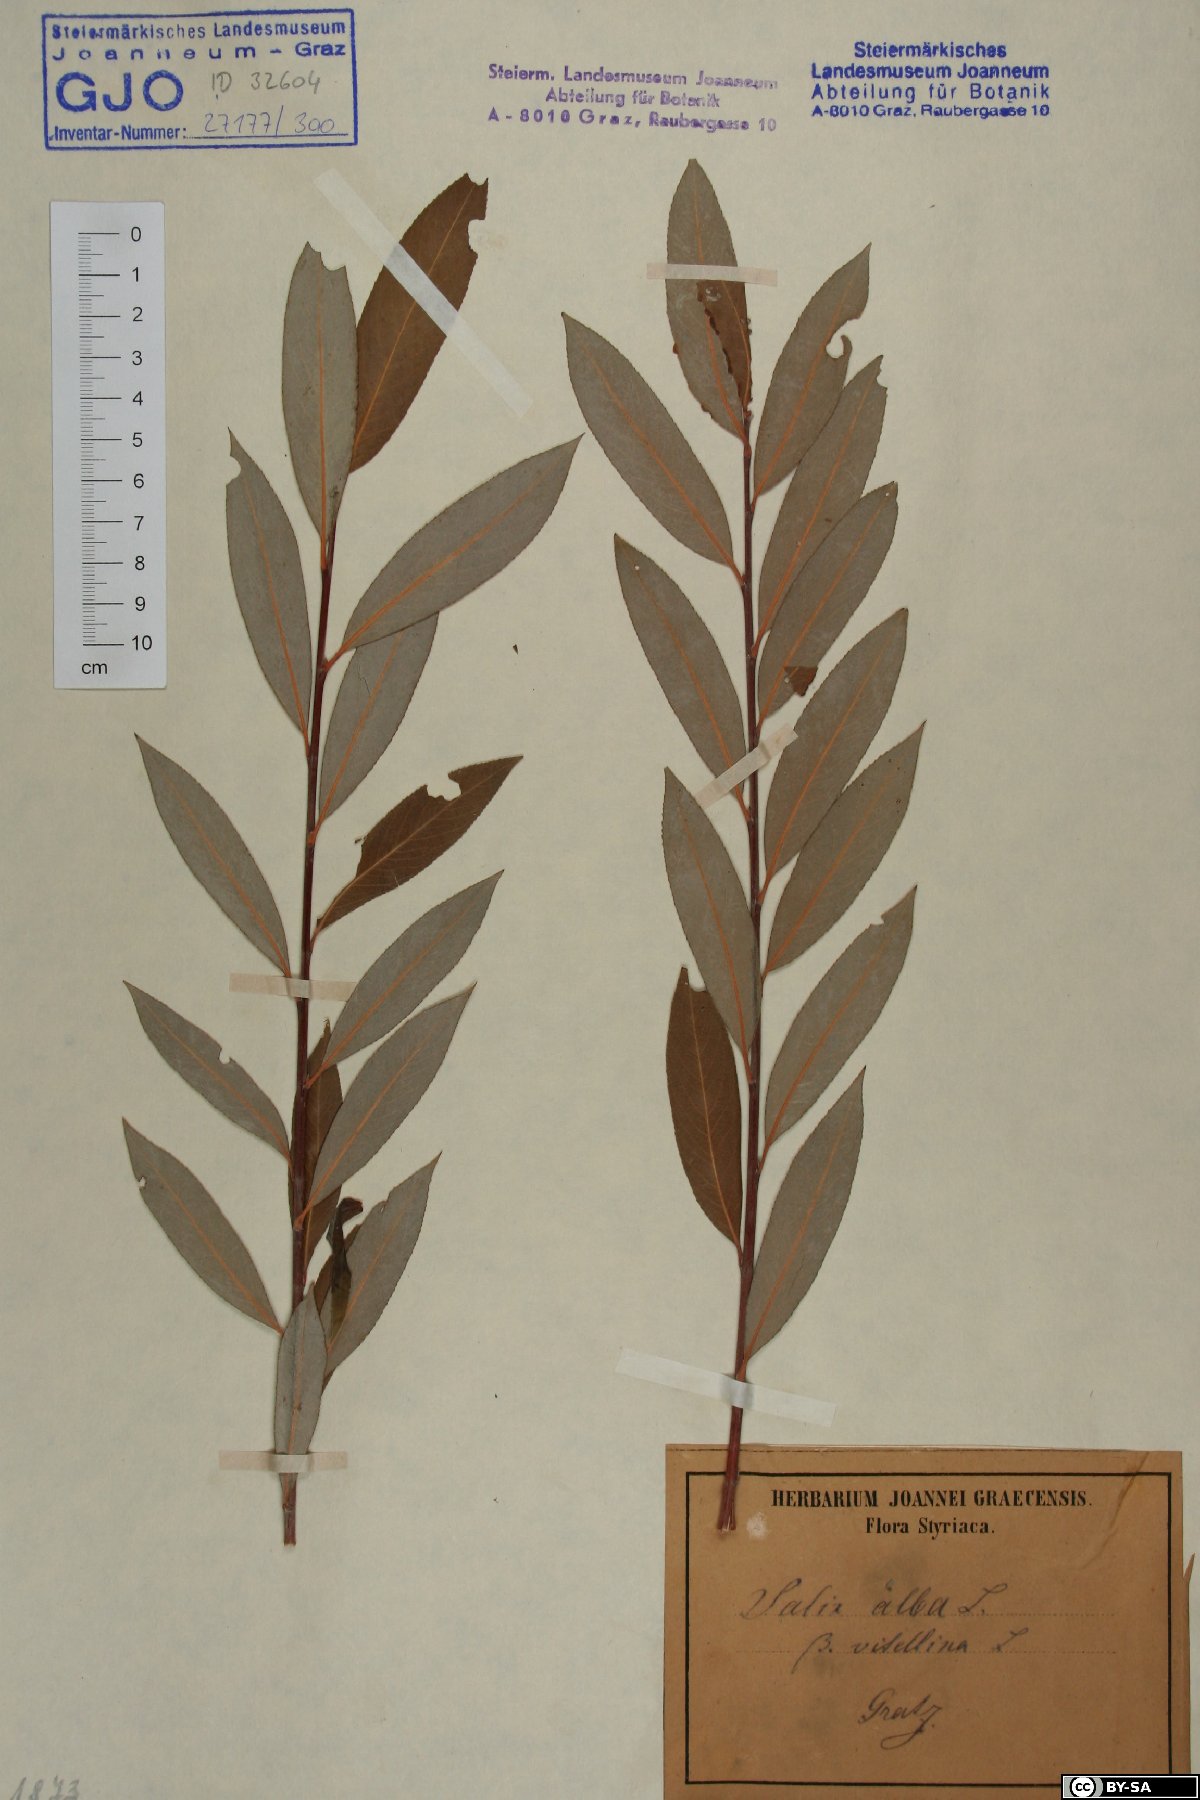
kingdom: Plantae
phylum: Tracheophyta
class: Magnoliopsida
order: Malpighiales
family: Salicaceae
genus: Salix
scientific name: Salix alba
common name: White willow
